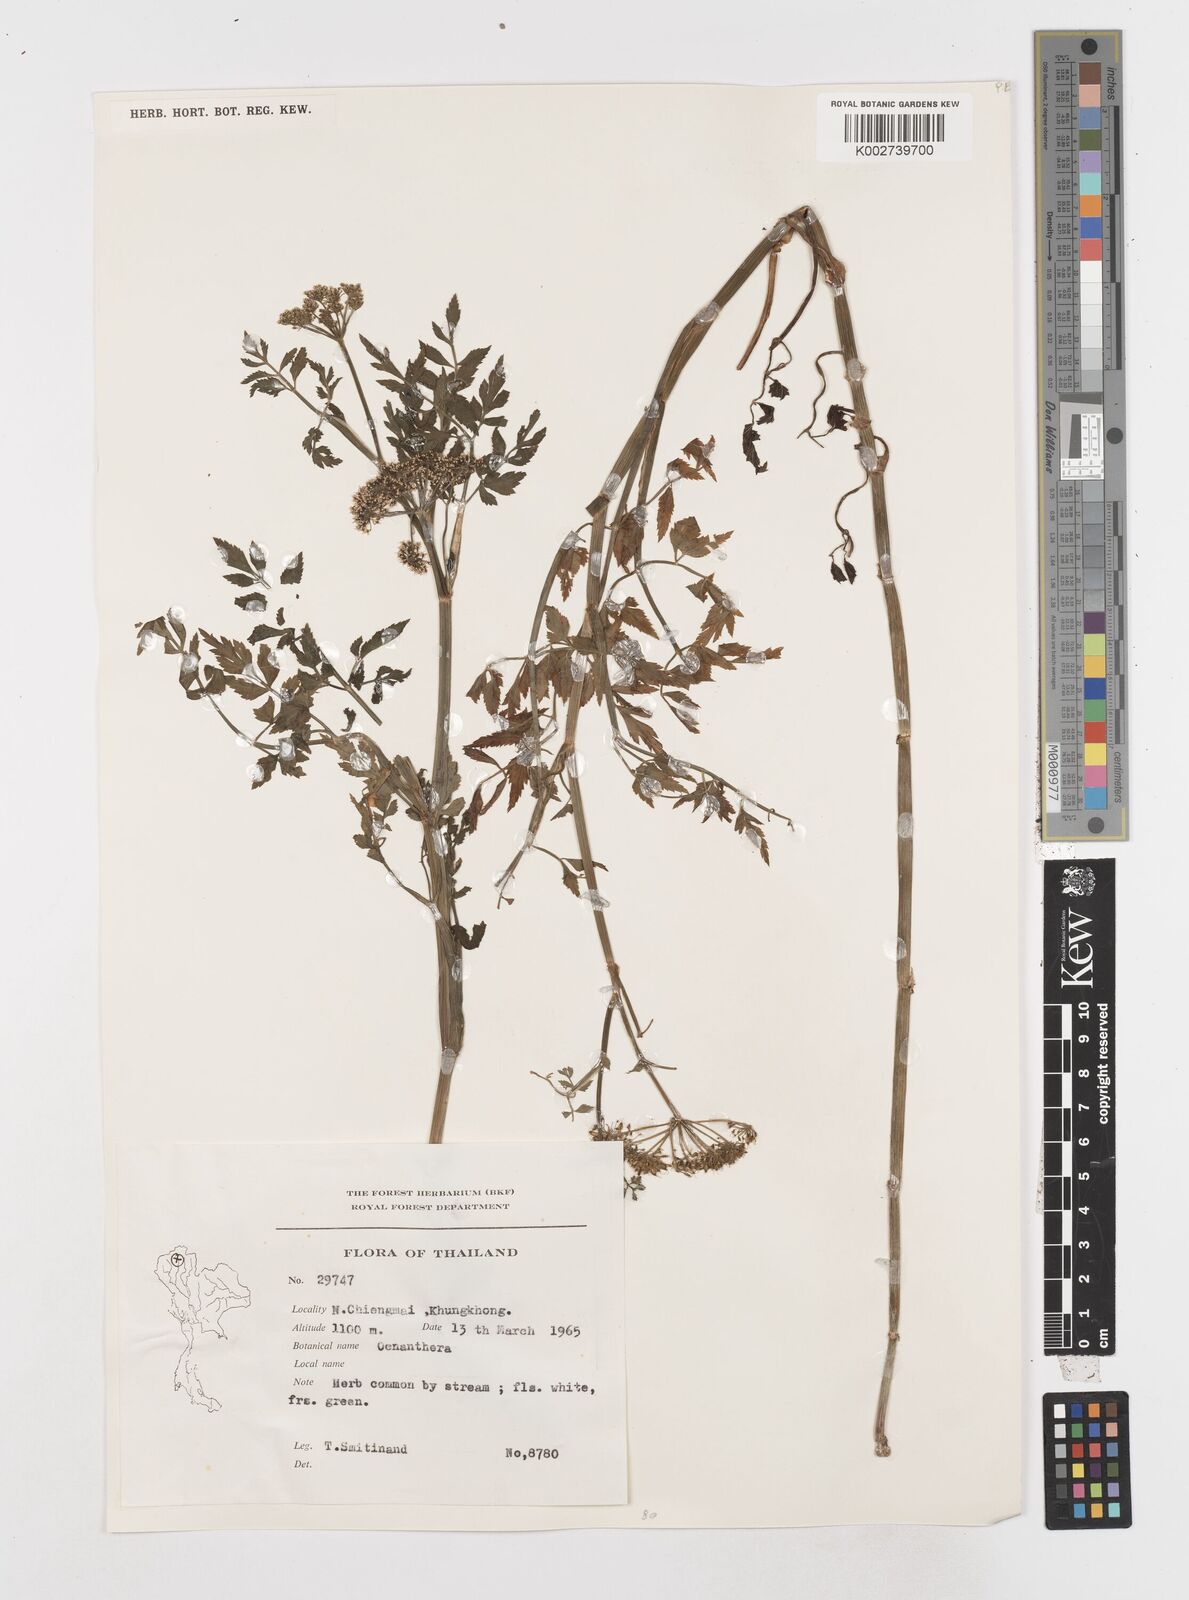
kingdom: Plantae
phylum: Tracheophyta
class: Magnoliopsida
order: Apiales
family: Apiaceae
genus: Oenanthe
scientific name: Oenanthe javanica
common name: Java water-dropwort
